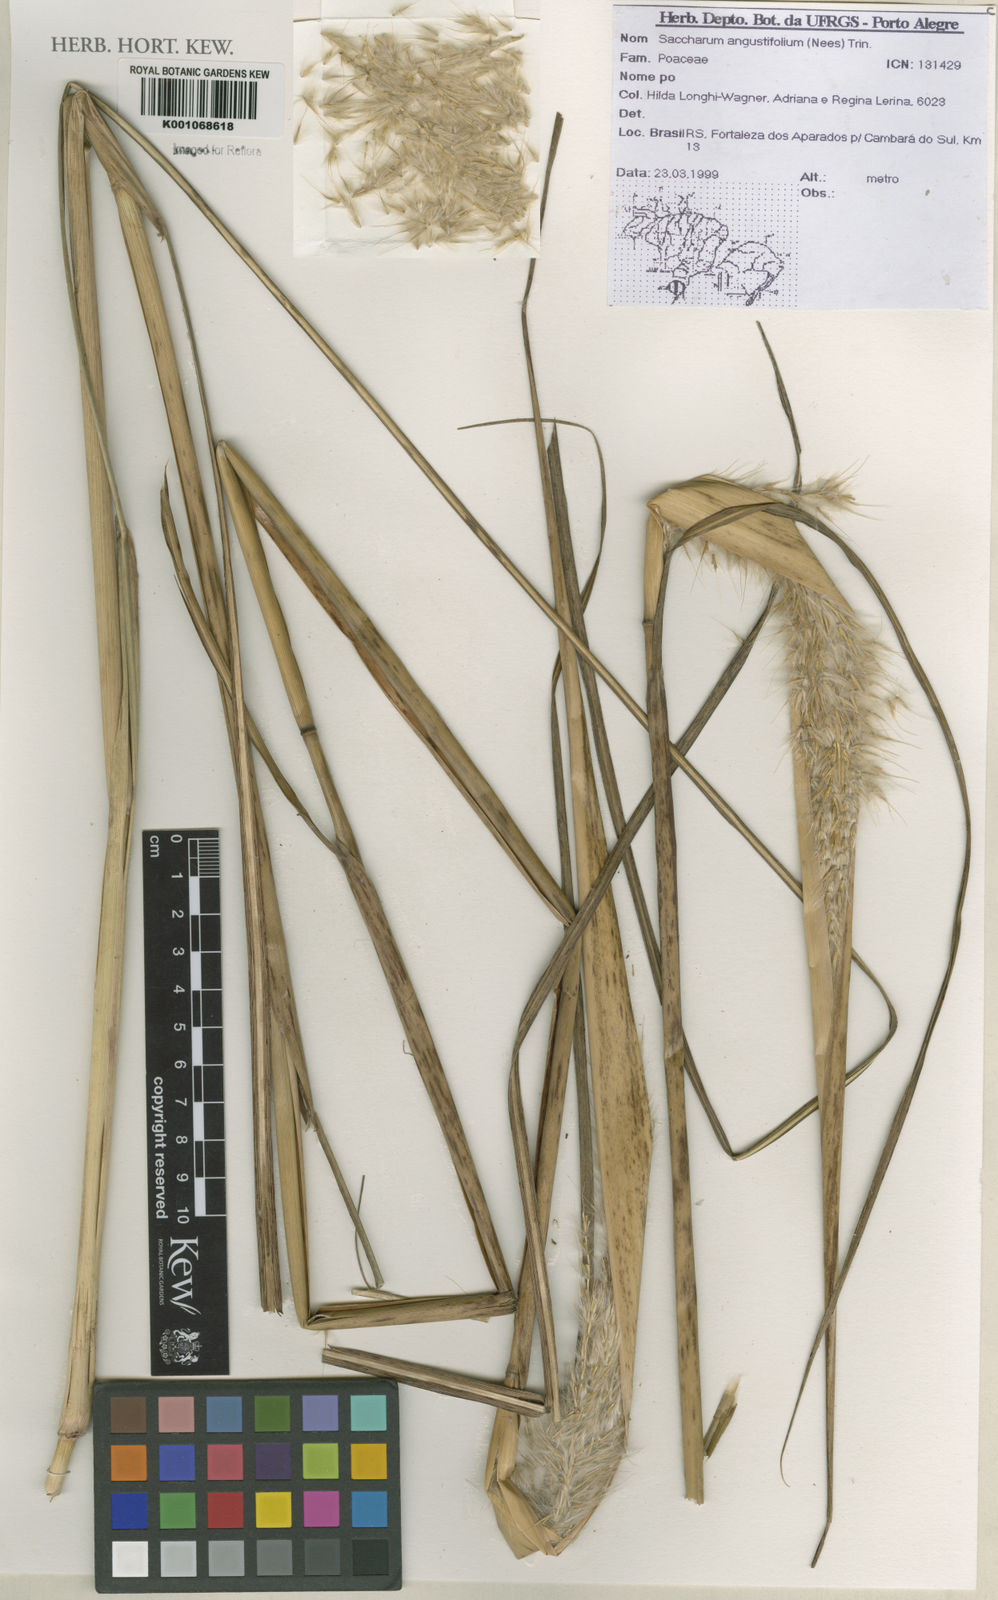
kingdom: Plantae
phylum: Tracheophyta
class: Liliopsida
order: Poales
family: Poaceae
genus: Saccharum
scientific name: Saccharum angustifolium
